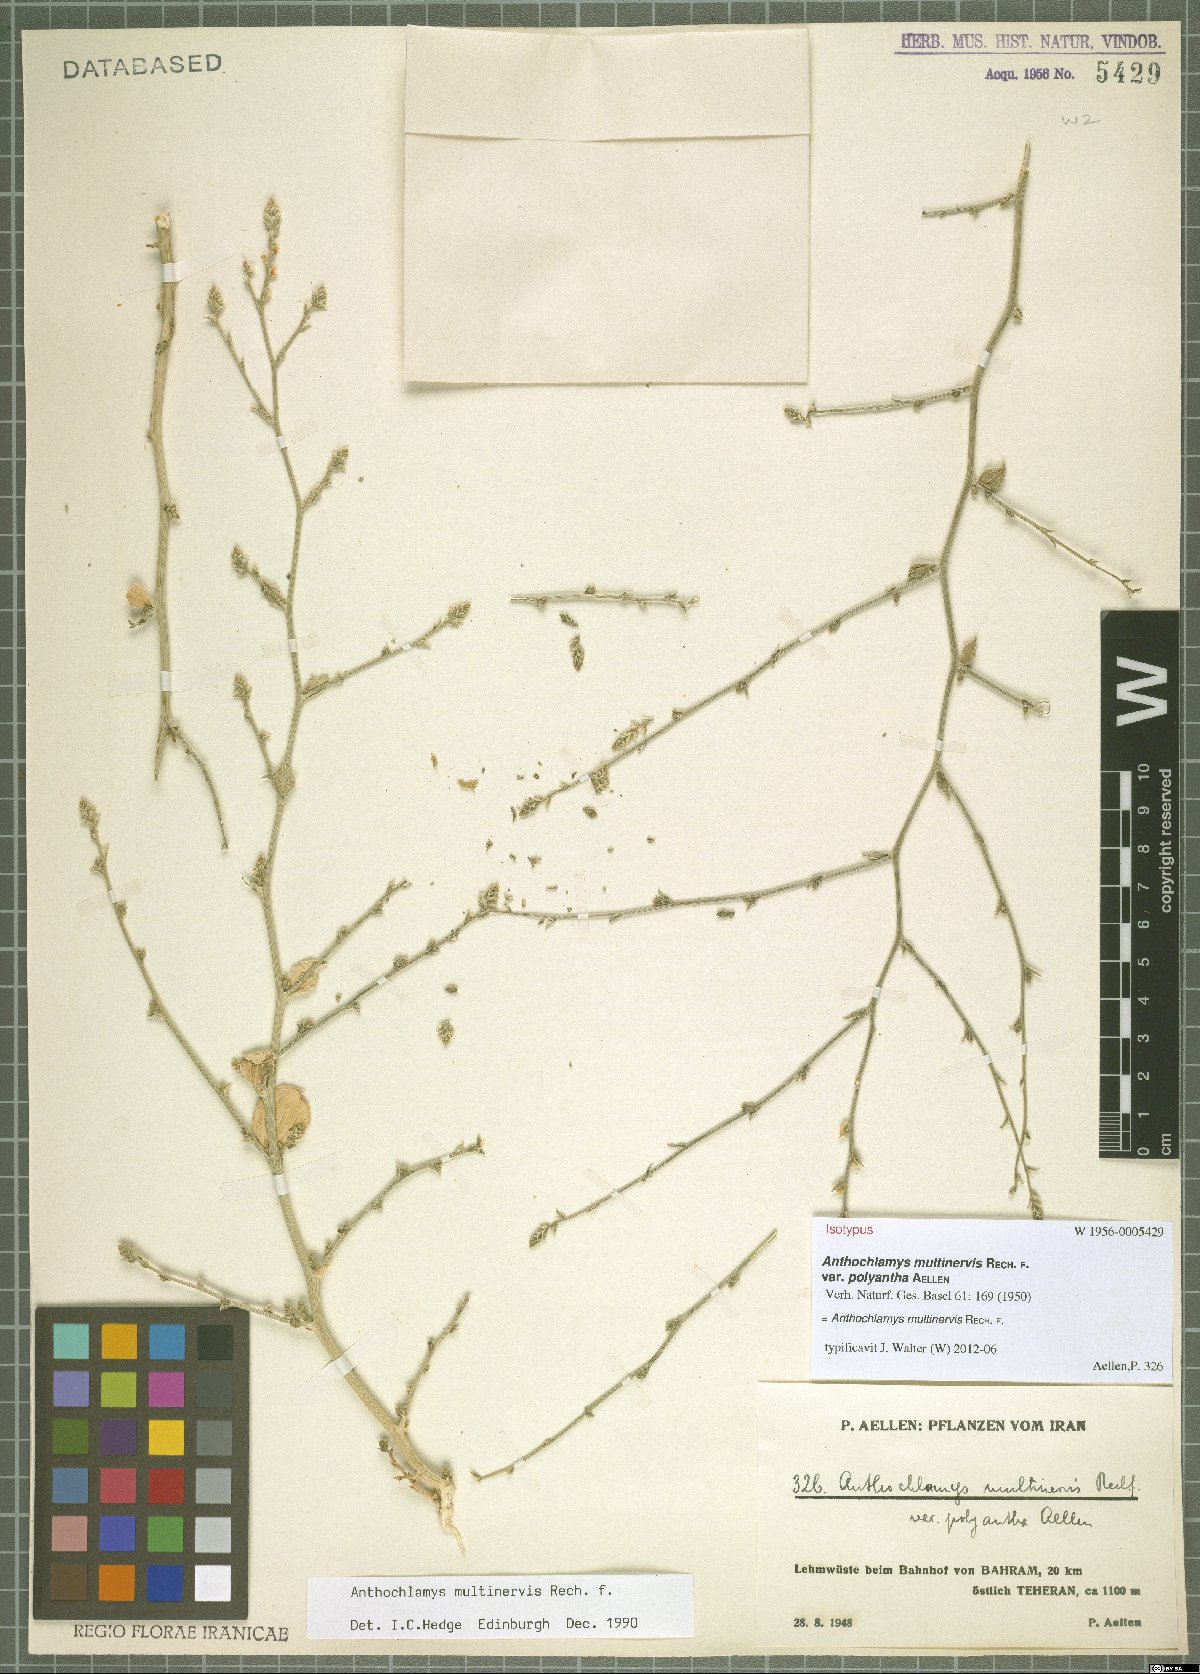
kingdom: Plantae
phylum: Tracheophyta
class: Magnoliopsida
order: Caryophyllales
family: Amaranthaceae
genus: Anthochlamys
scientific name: Anthochlamys multinervis
